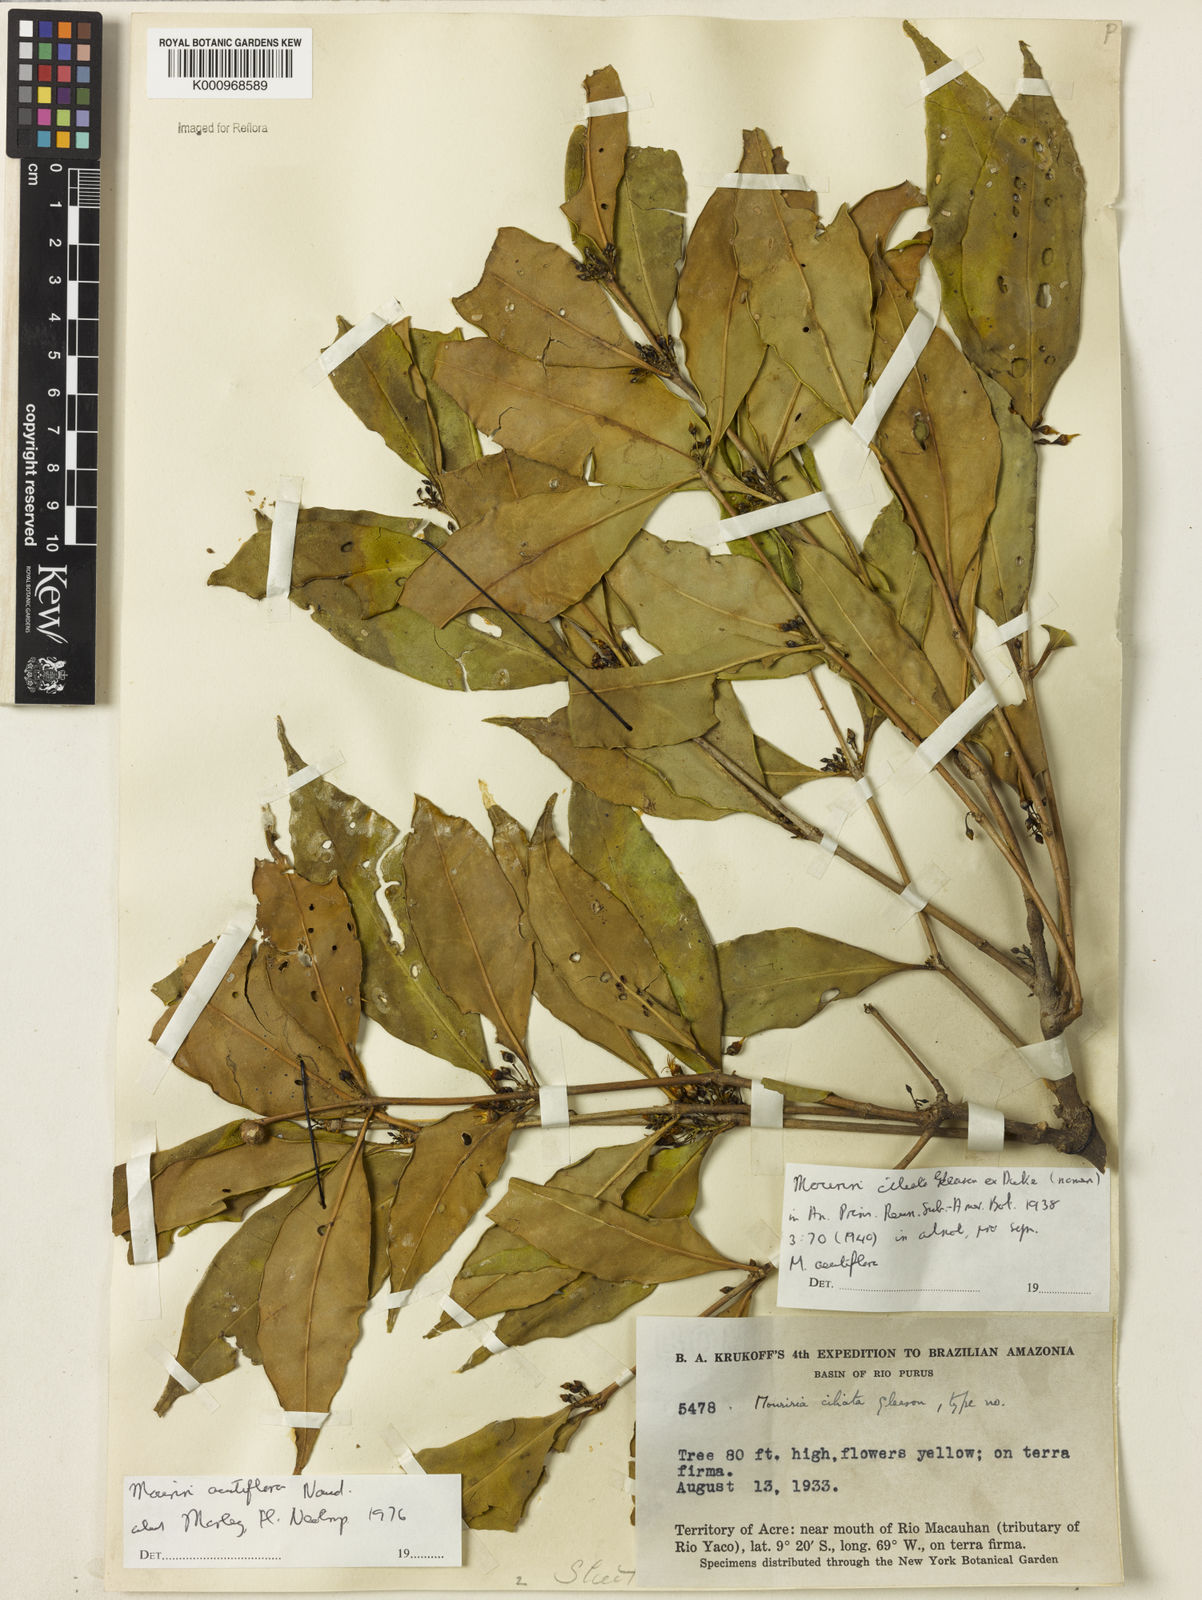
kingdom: Plantae
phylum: Tracheophyta
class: Magnoliopsida
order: Myrtales
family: Melastomataceae
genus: Mouriri
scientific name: Mouriri acutiflora
